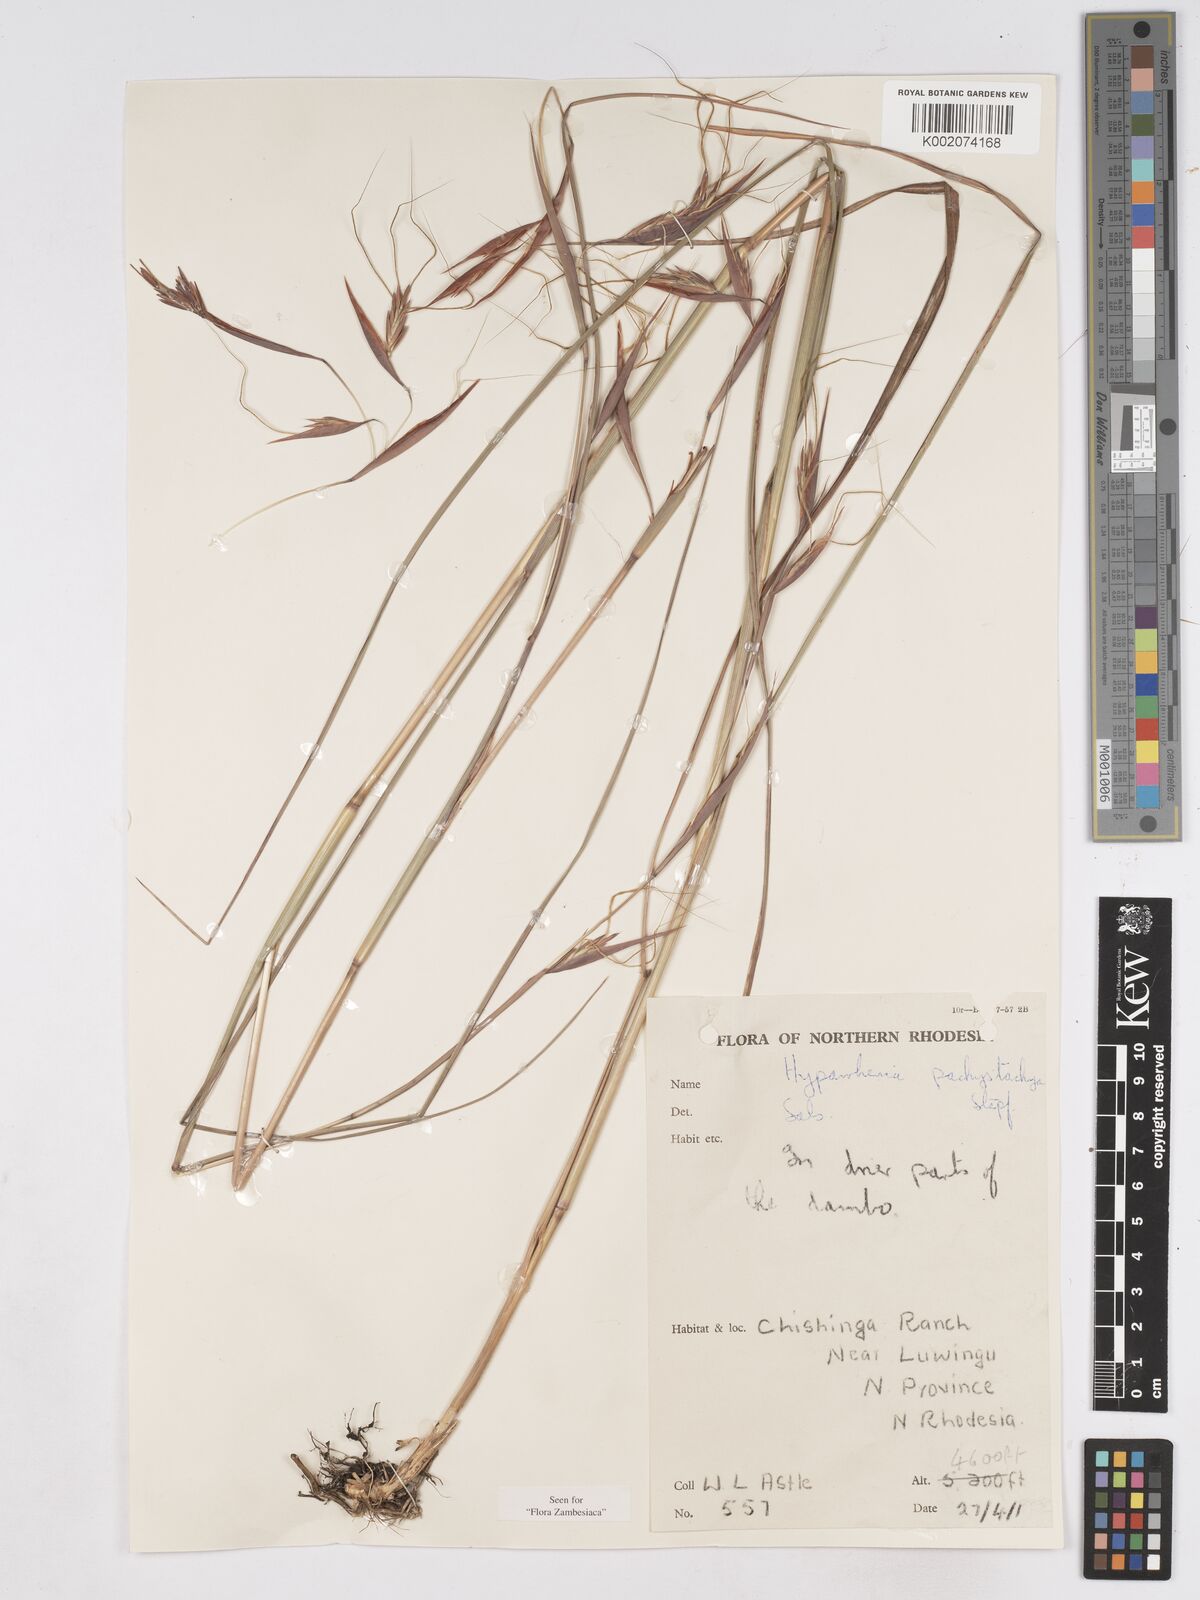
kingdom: Plantae
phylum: Tracheophyta
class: Liliopsida
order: Poales
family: Poaceae
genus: Hyparrhenia
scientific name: Hyparrhenia diplandra
